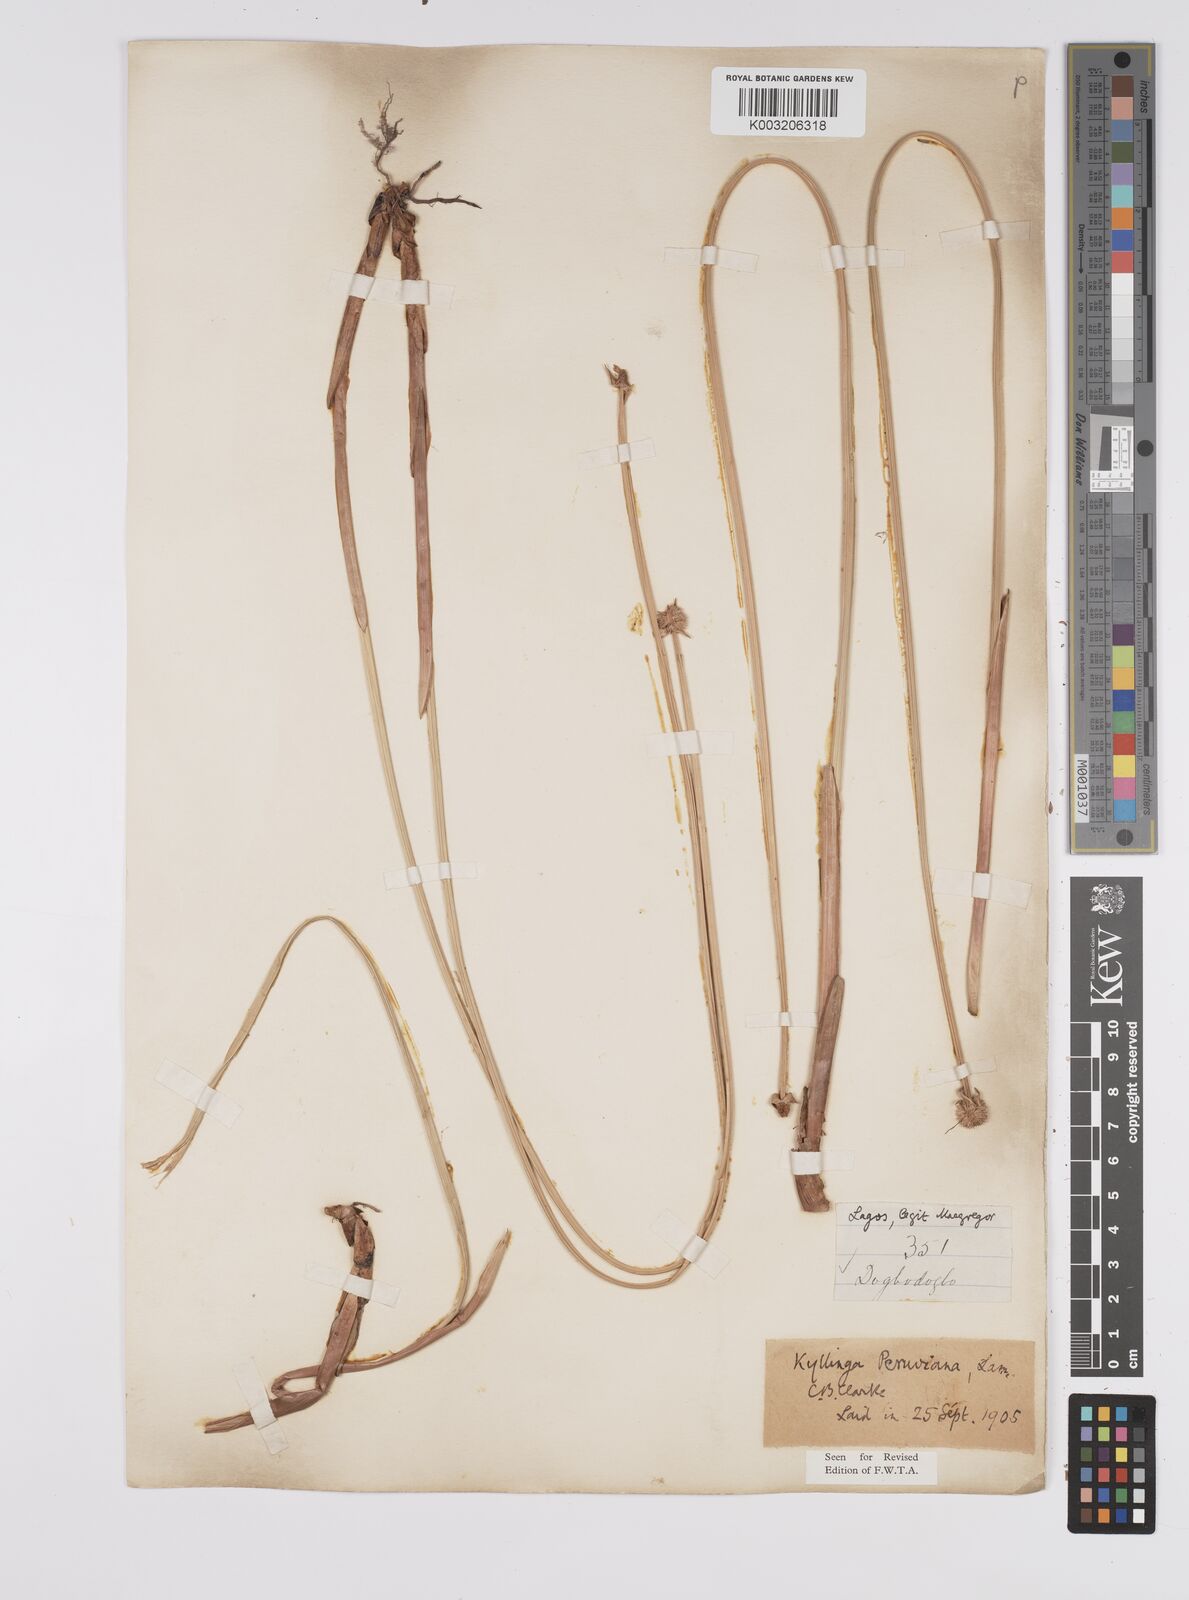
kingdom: Plantae
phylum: Tracheophyta
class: Liliopsida
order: Poales
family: Cyperaceae
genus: Cyperus
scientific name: Cyperus
